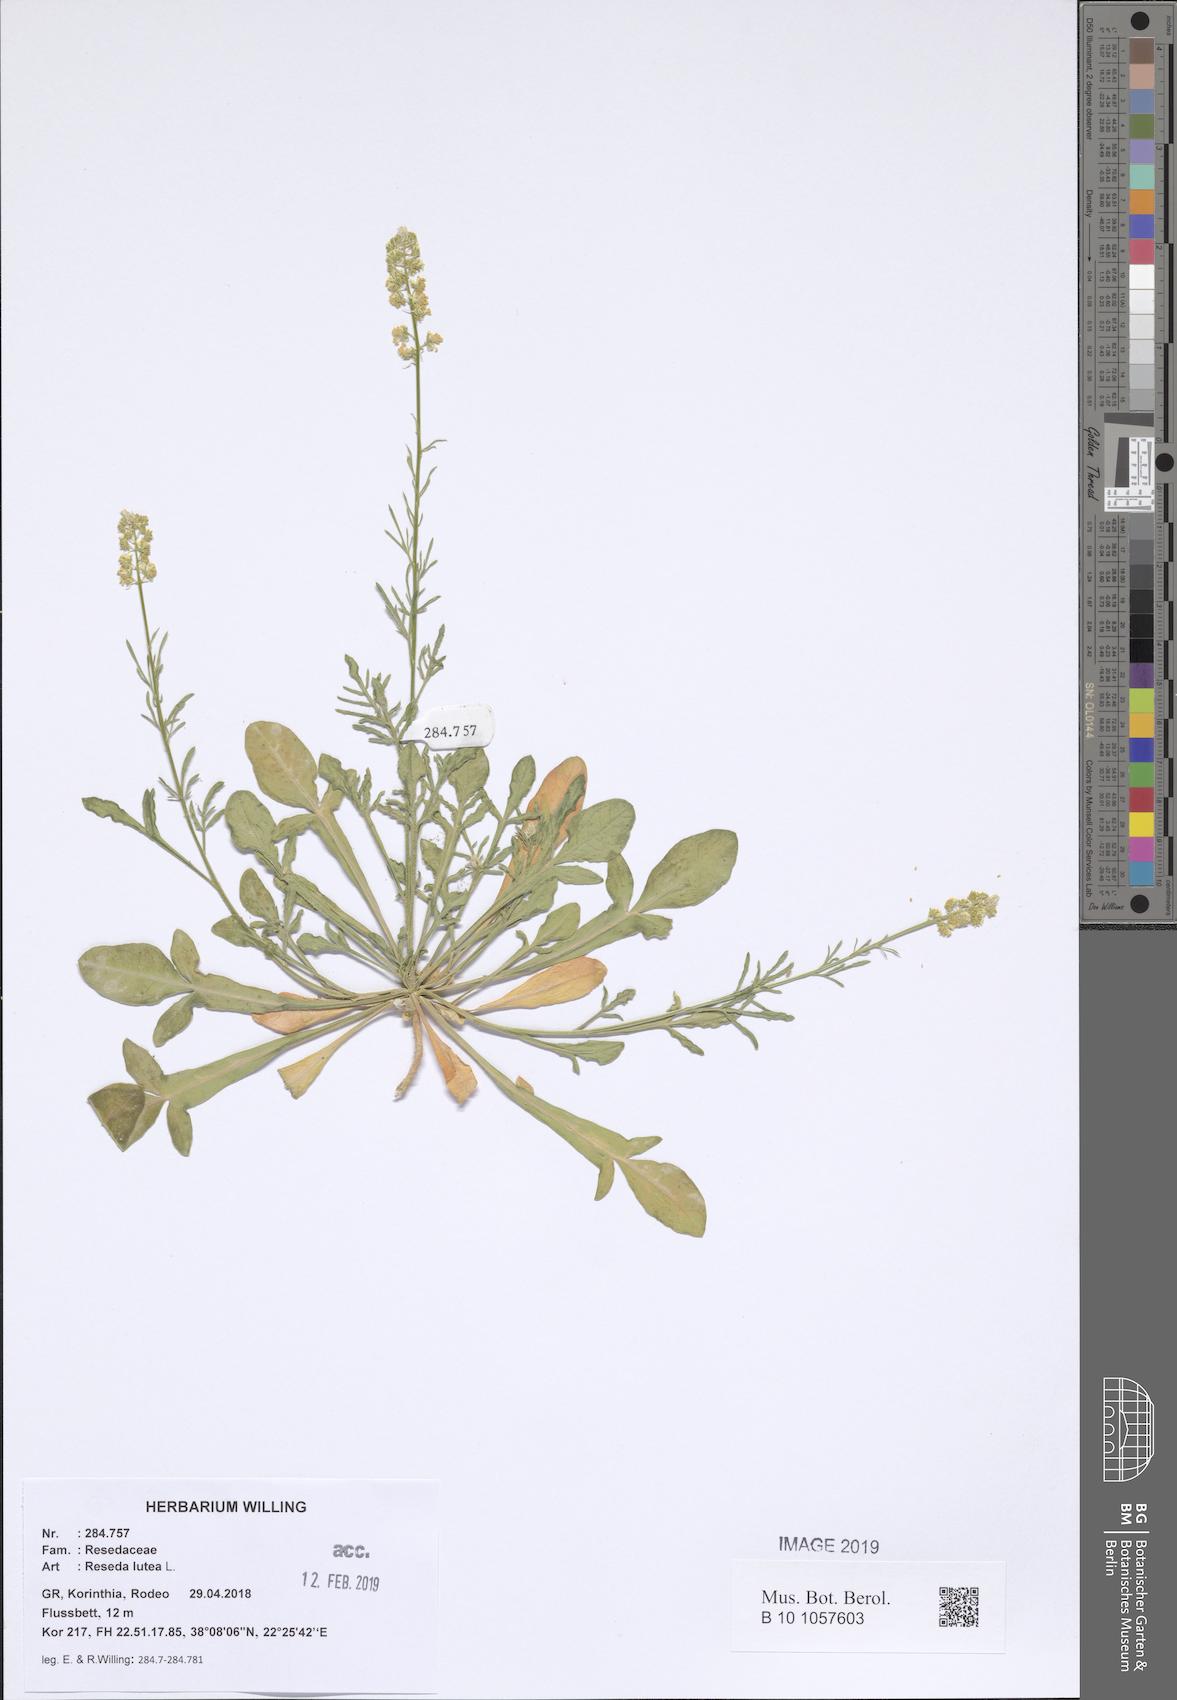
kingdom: Plantae
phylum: Tracheophyta
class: Magnoliopsida
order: Brassicales
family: Resedaceae
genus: Reseda
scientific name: Reseda lutea
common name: Wild mignonette
